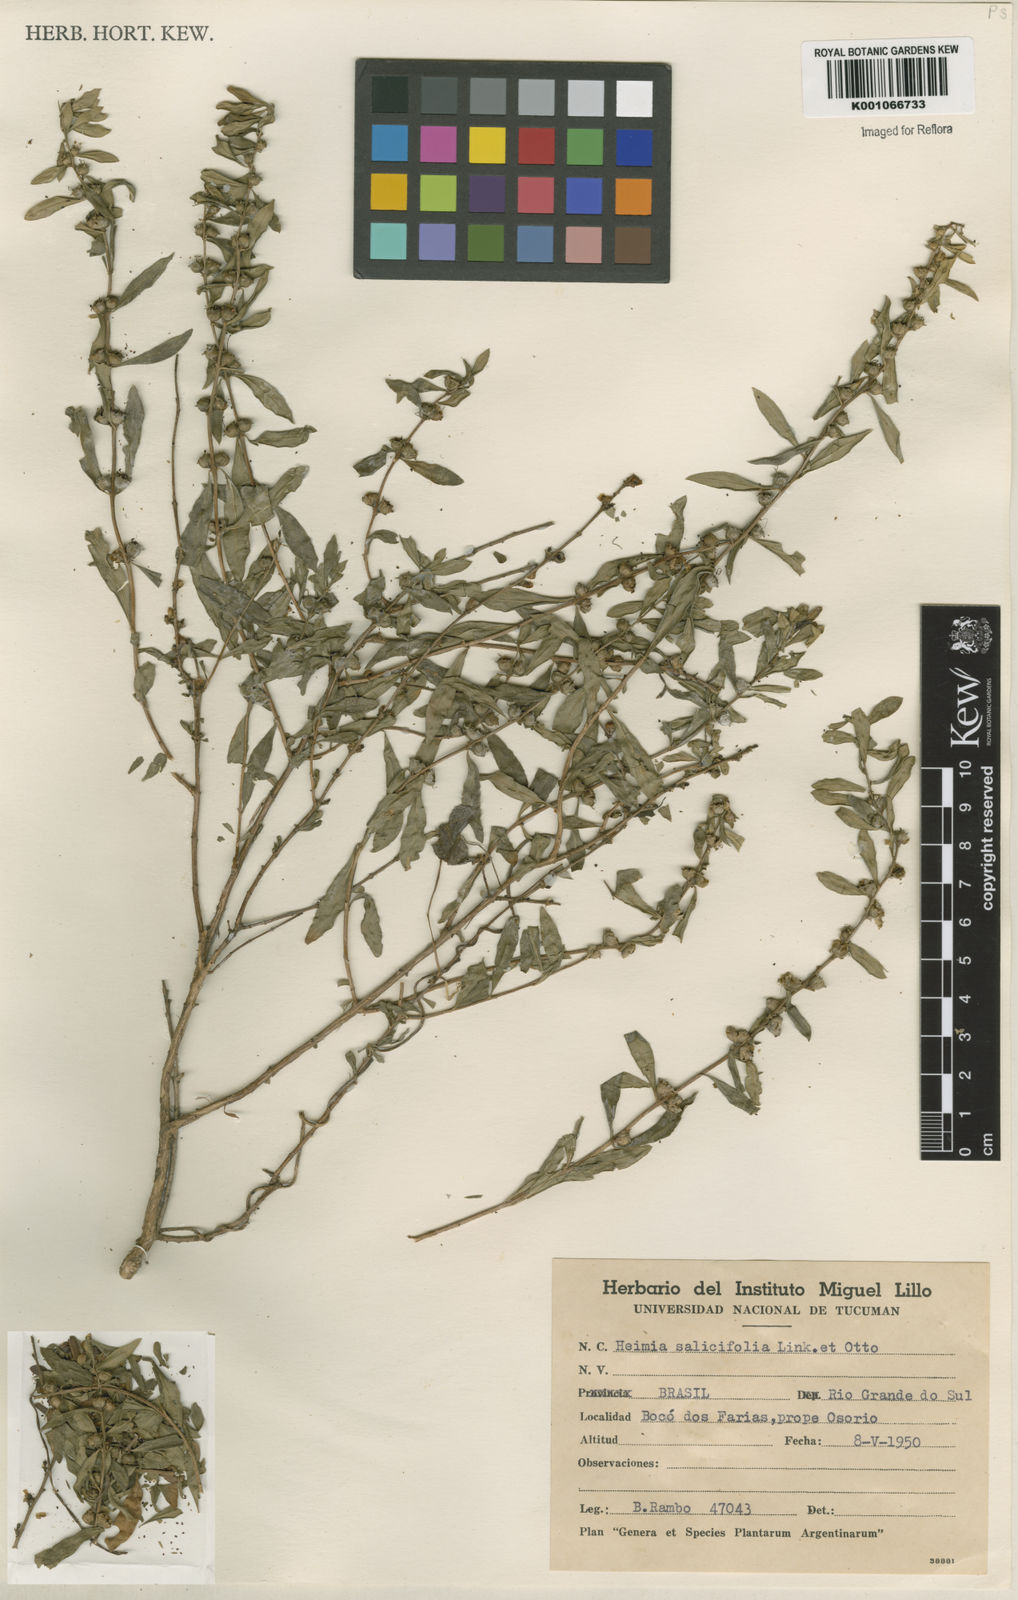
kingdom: Plantae
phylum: Tracheophyta
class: Magnoliopsida
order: Myrtales
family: Lythraceae
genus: Heimia
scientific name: Heimia salicifolia
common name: Willow-leaf heimia
